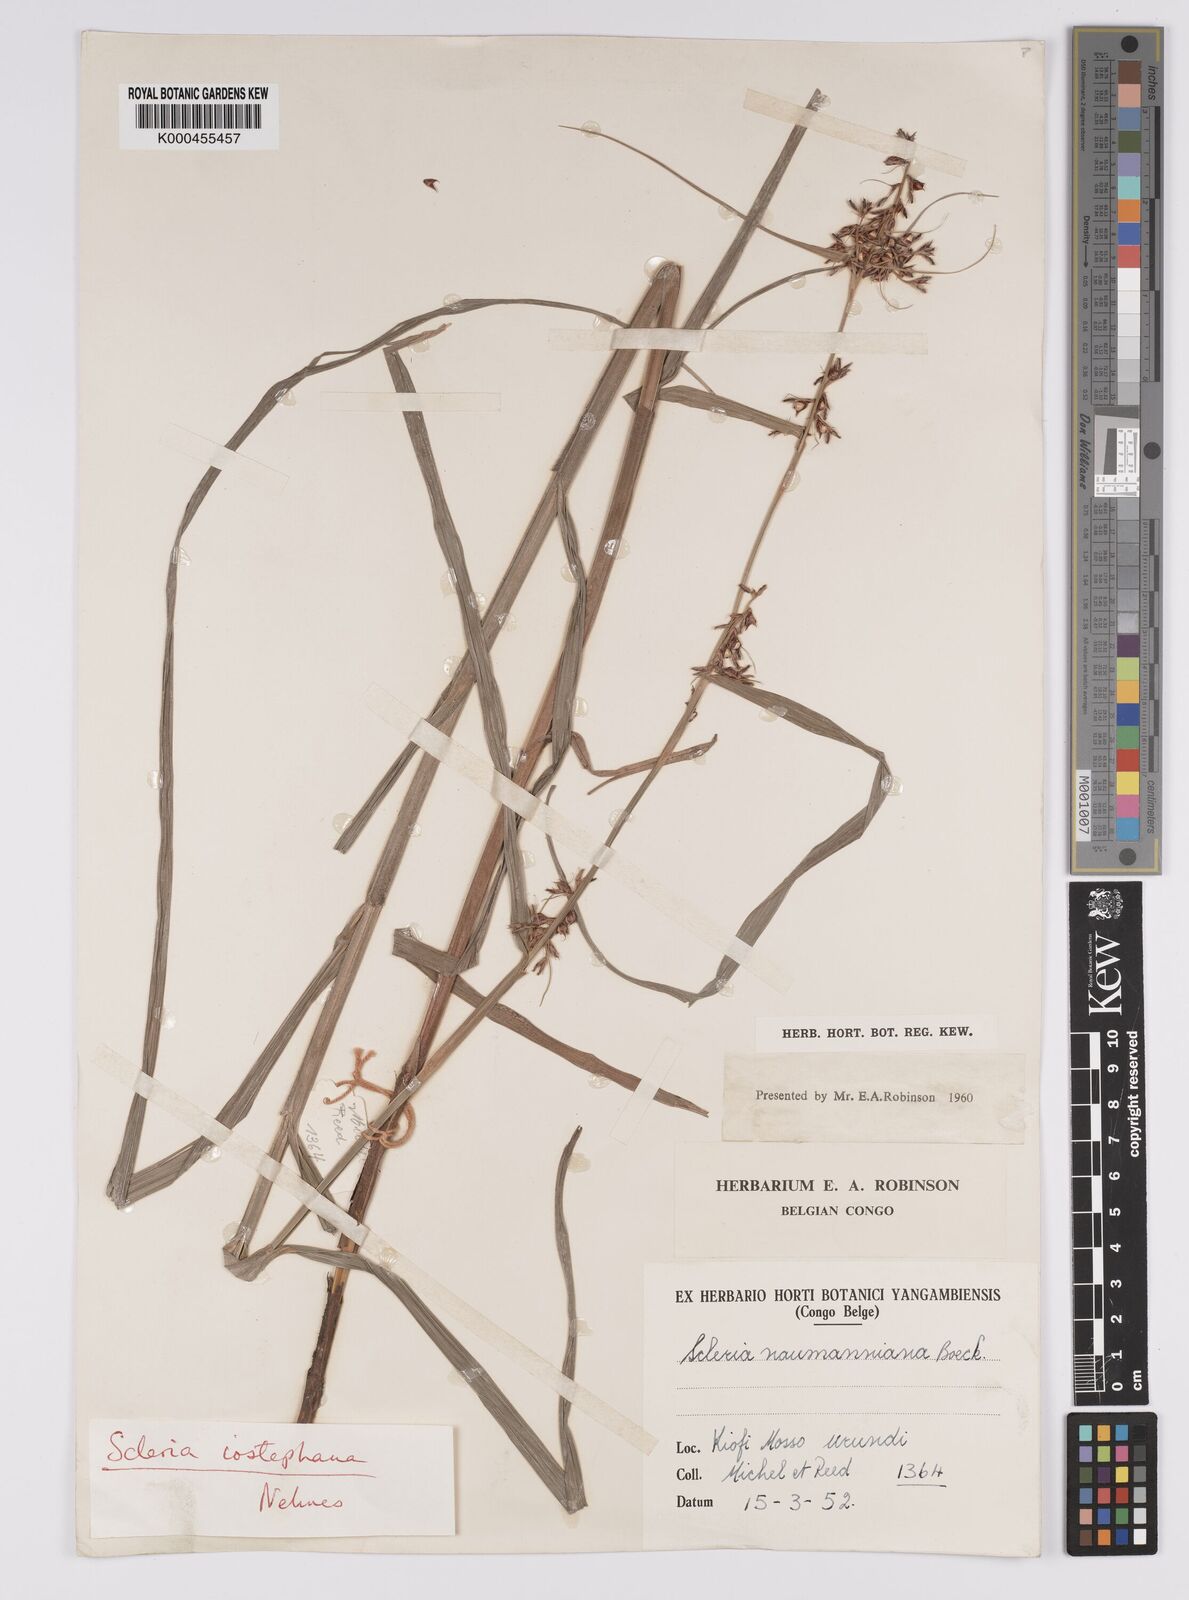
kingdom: Plantae
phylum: Tracheophyta
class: Liliopsida
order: Poales
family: Cyperaceae
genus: Scleria
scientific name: Scleria iostephana
